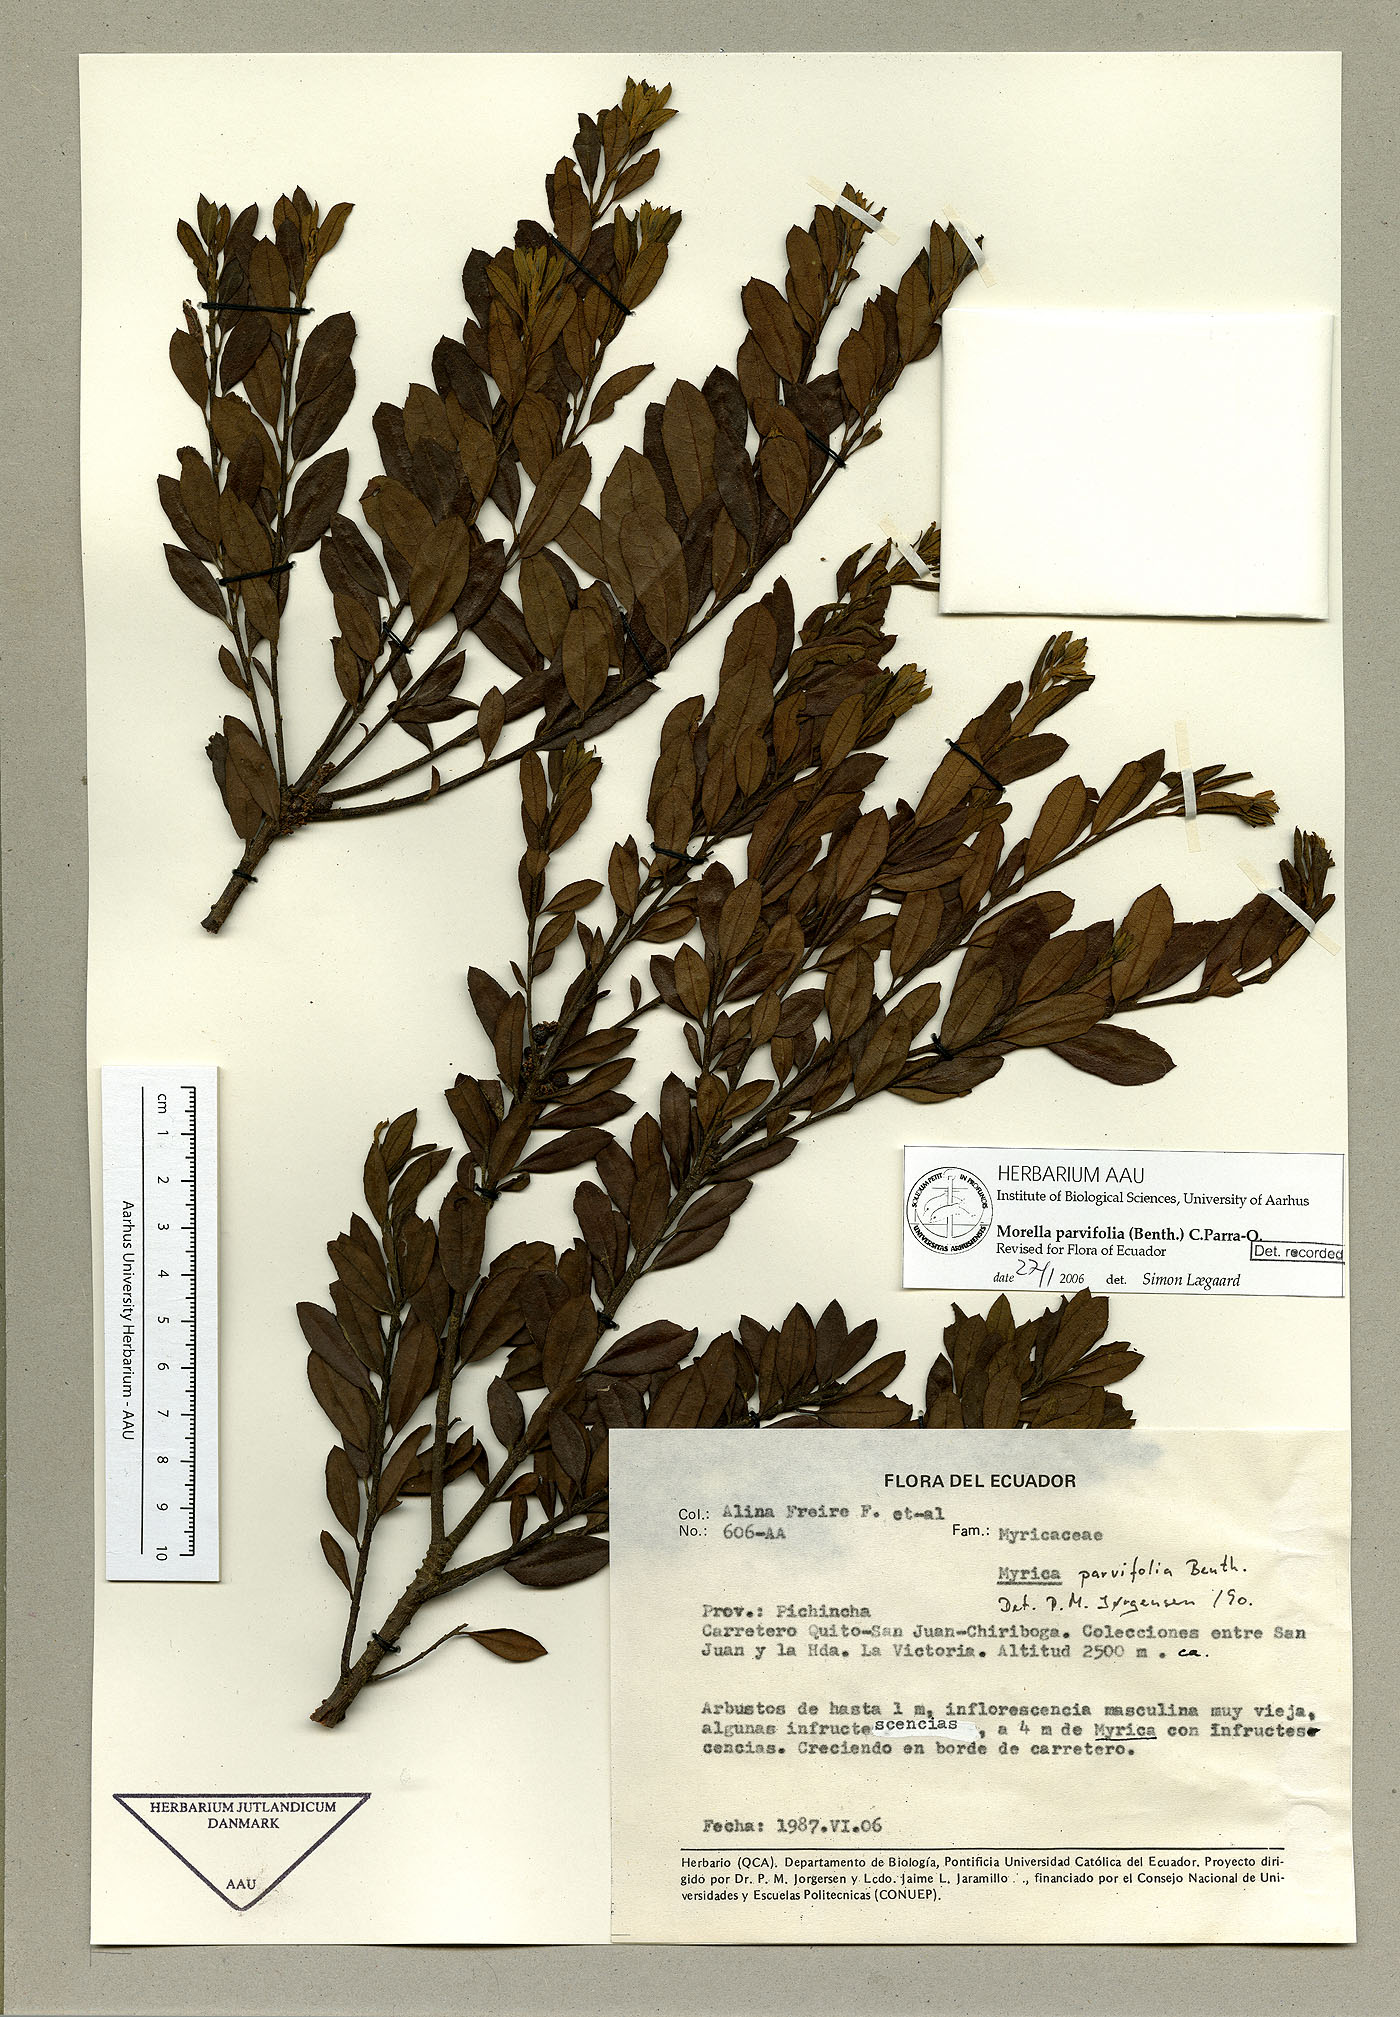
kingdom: Plantae
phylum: Tracheophyta
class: Magnoliopsida
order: Fagales
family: Myricaceae
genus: Morella
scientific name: Morella parvifolia
